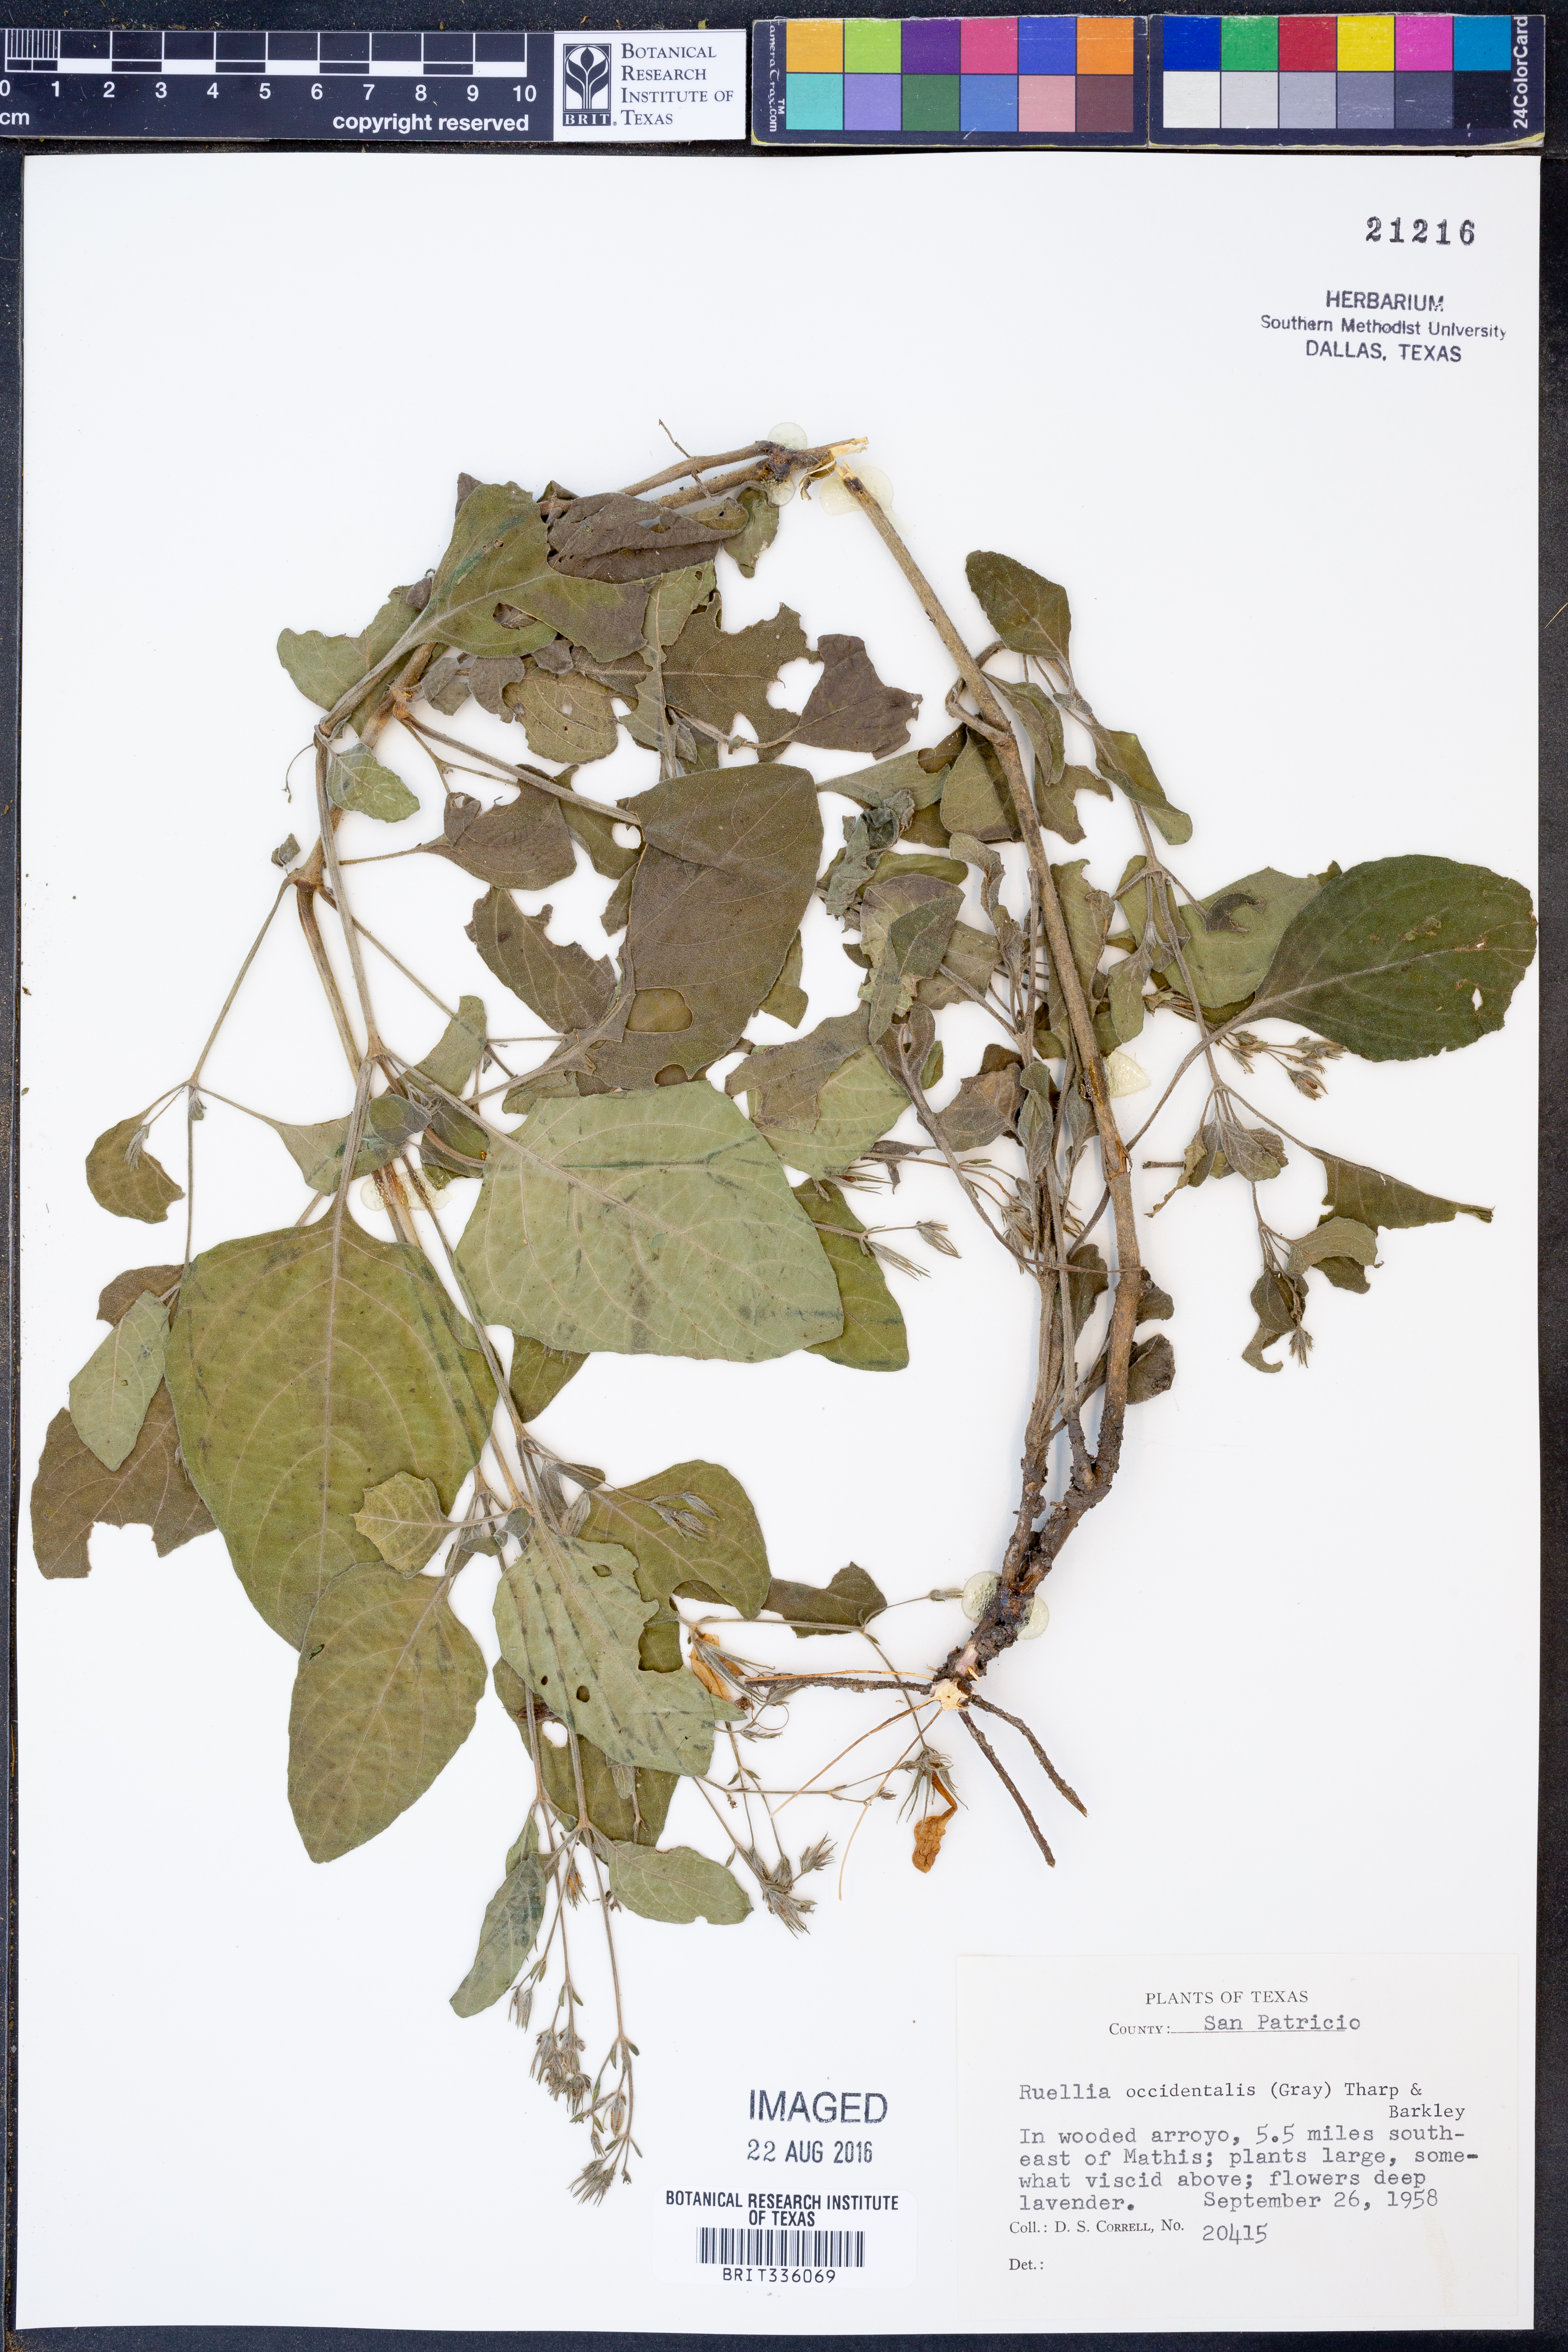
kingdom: Plantae
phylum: Tracheophyta
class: Magnoliopsida
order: Lamiales
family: Acanthaceae
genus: Ruellia
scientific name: Ruellia ciliatiflora
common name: Hairyflower wild petunia
